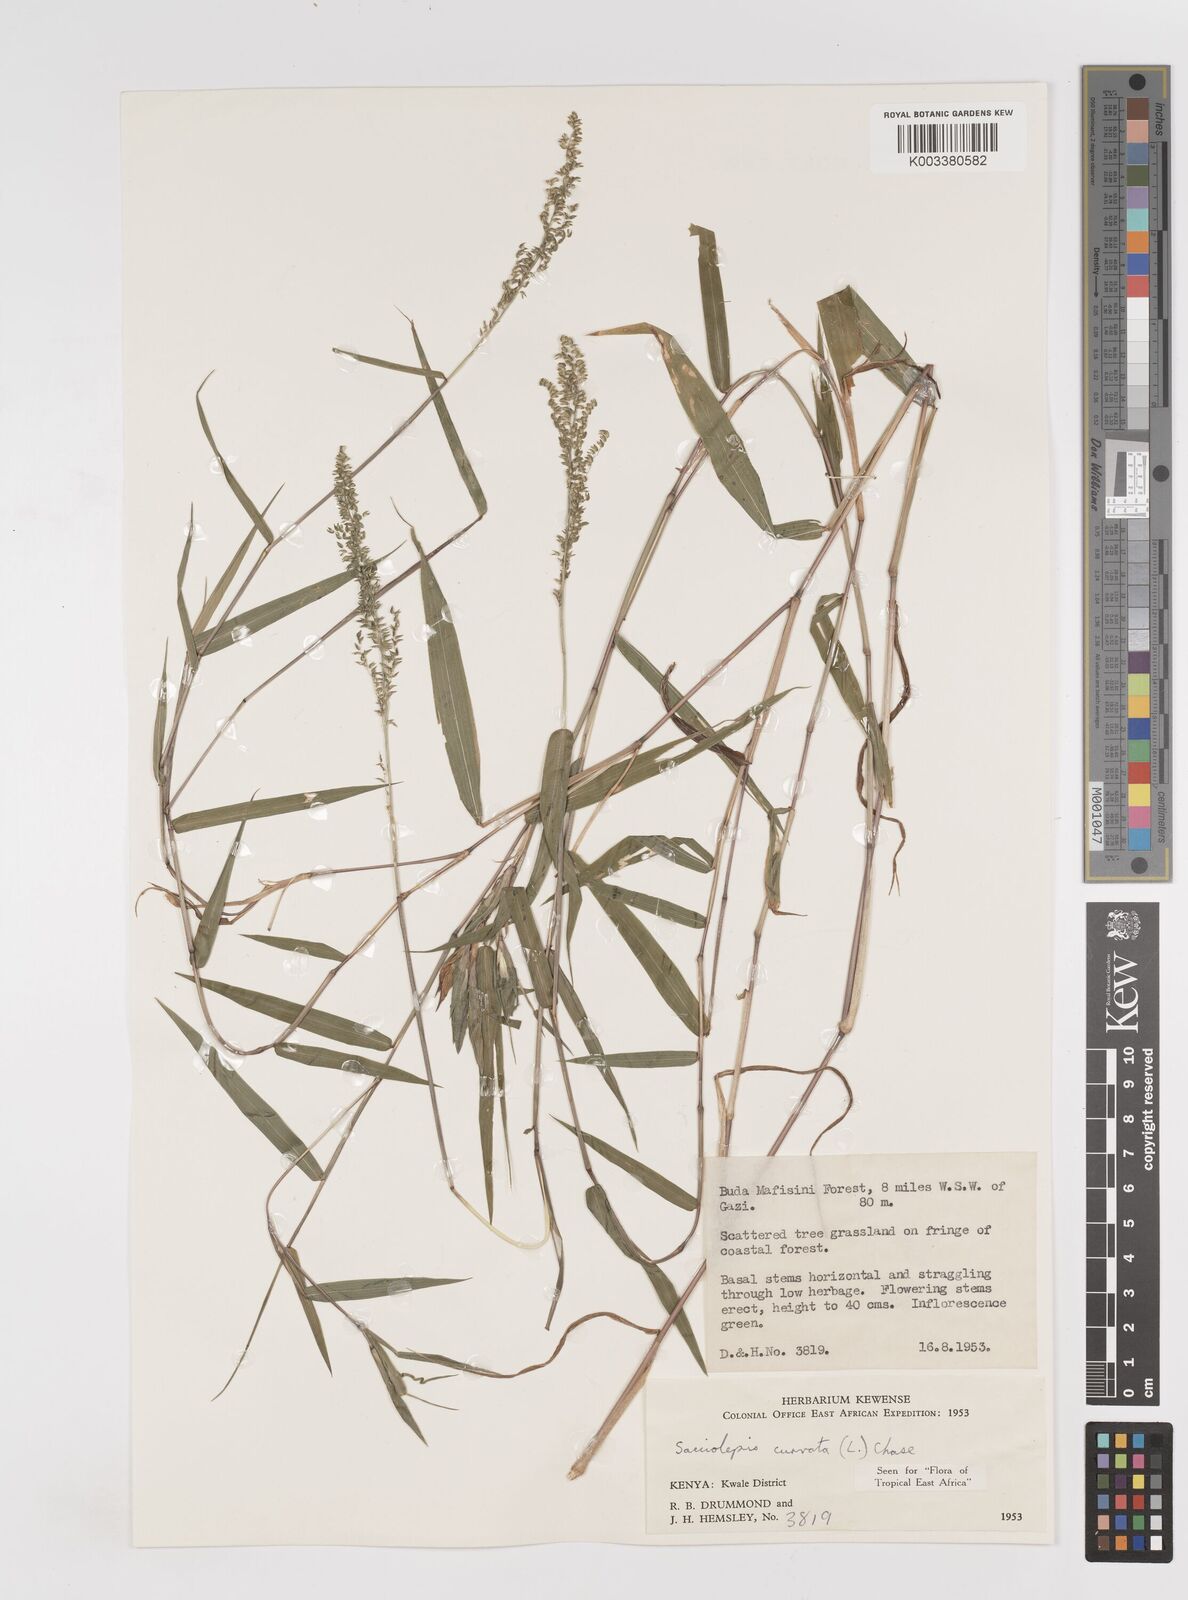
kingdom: Plantae
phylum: Tracheophyta
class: Liliopsida
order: Poales
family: Poaceae
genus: Sacciolepis
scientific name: Sacciolepis curvata
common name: Forest hood grass
